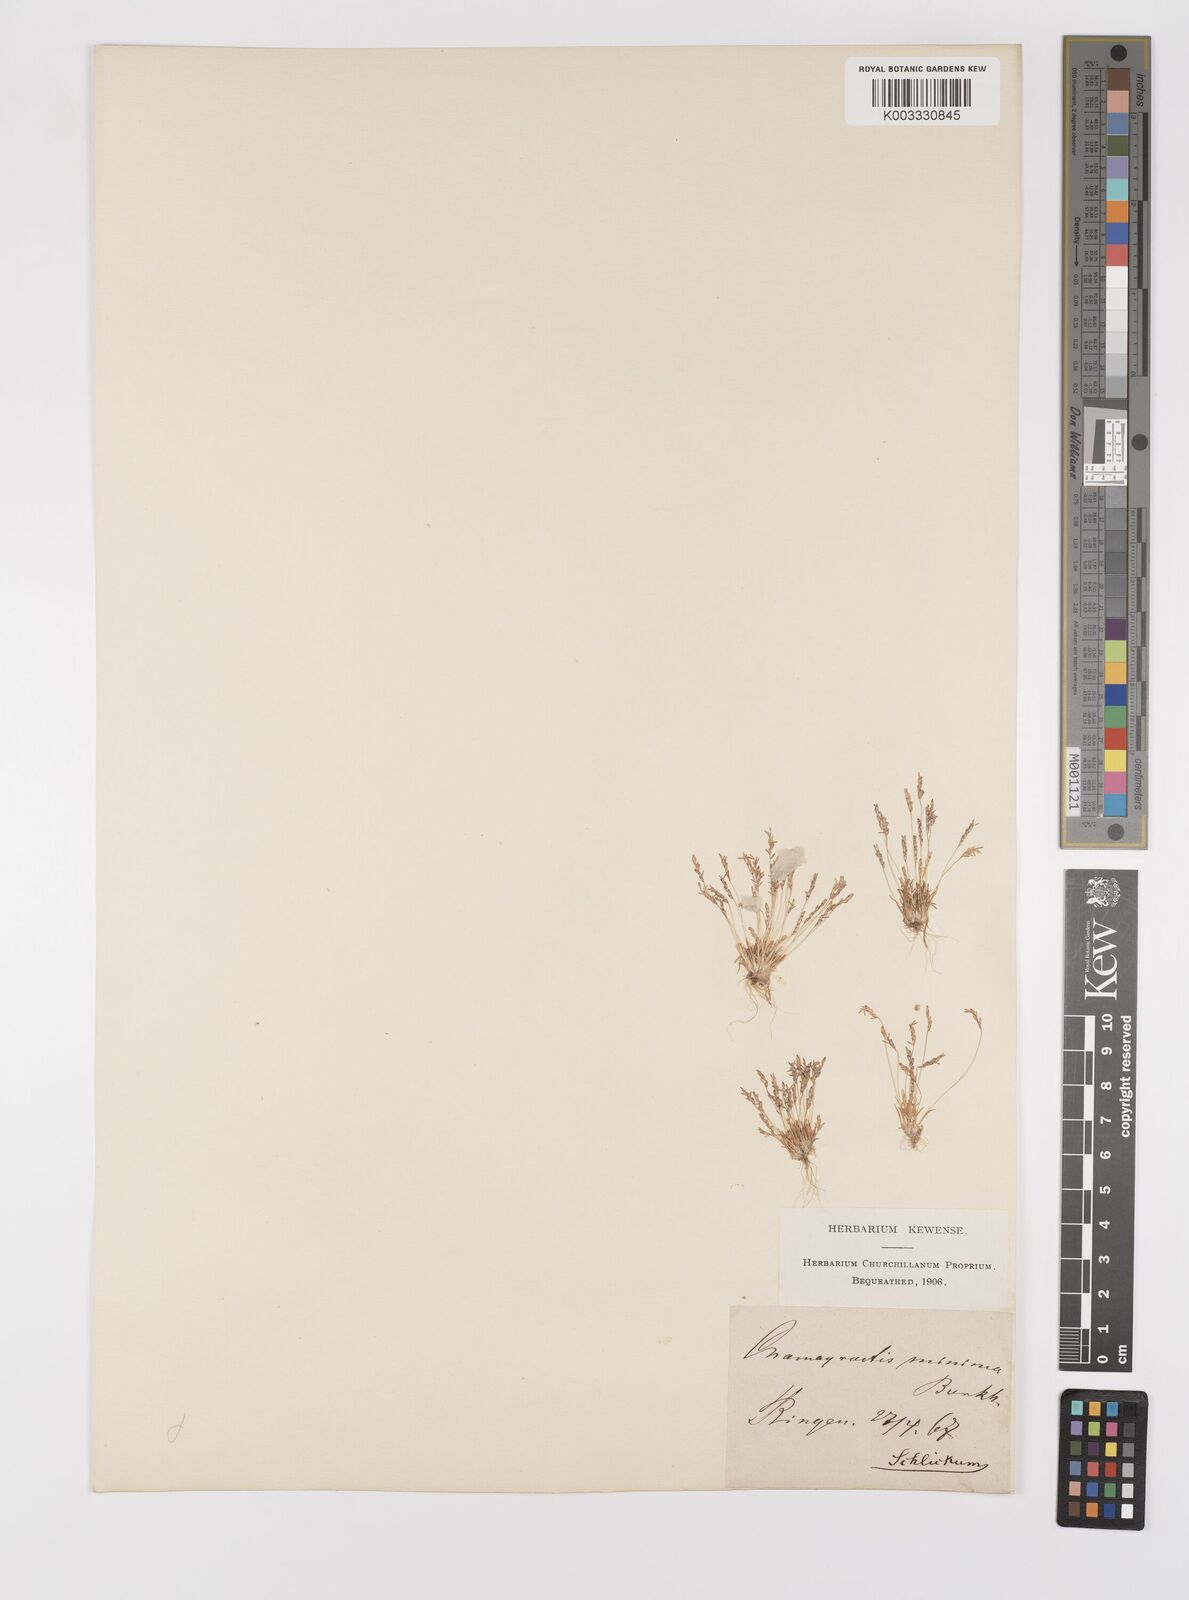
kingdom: Plantae
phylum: Tracheophyta
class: Liliopsida
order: Poales
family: Poaceae
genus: Mibora
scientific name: Mibora minima
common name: Early sand-grass
